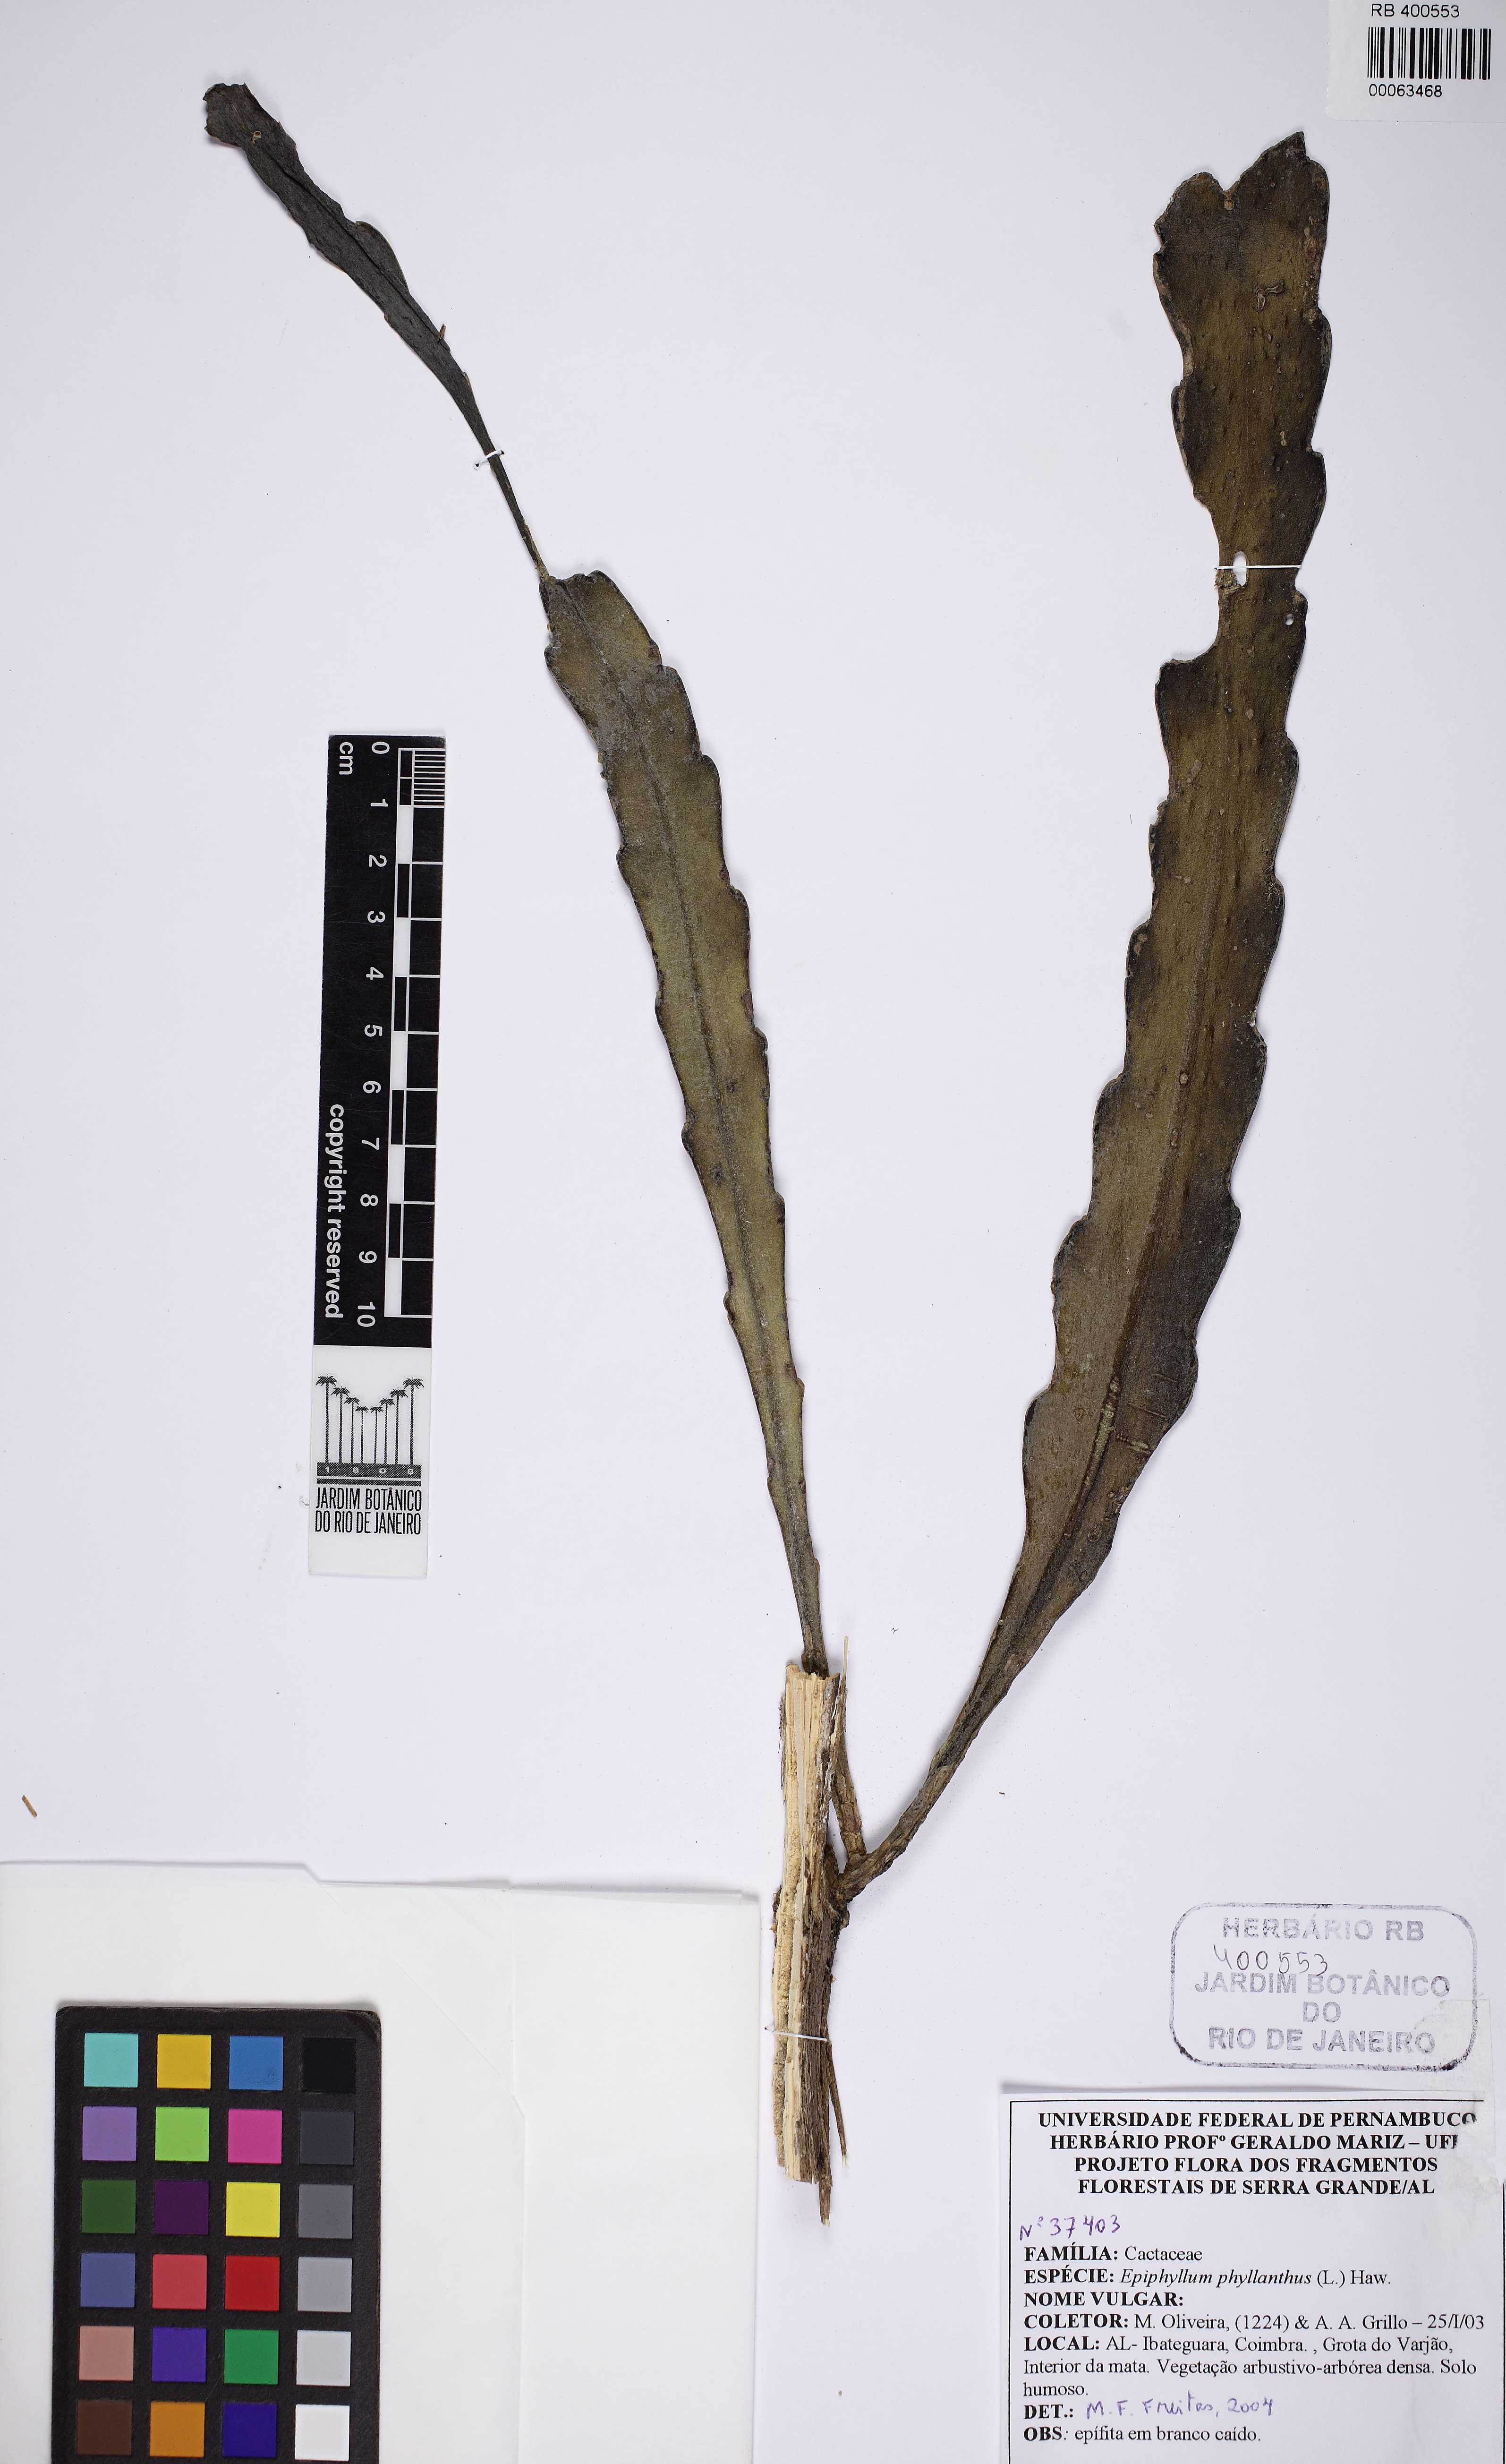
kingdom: Plantae
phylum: Tracheophyta
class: Magnoliopsida
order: Caryophyllales
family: Cactaceae
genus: Epiphyllum
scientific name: Epiphyllum phyllanthus
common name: Climbing cactus
